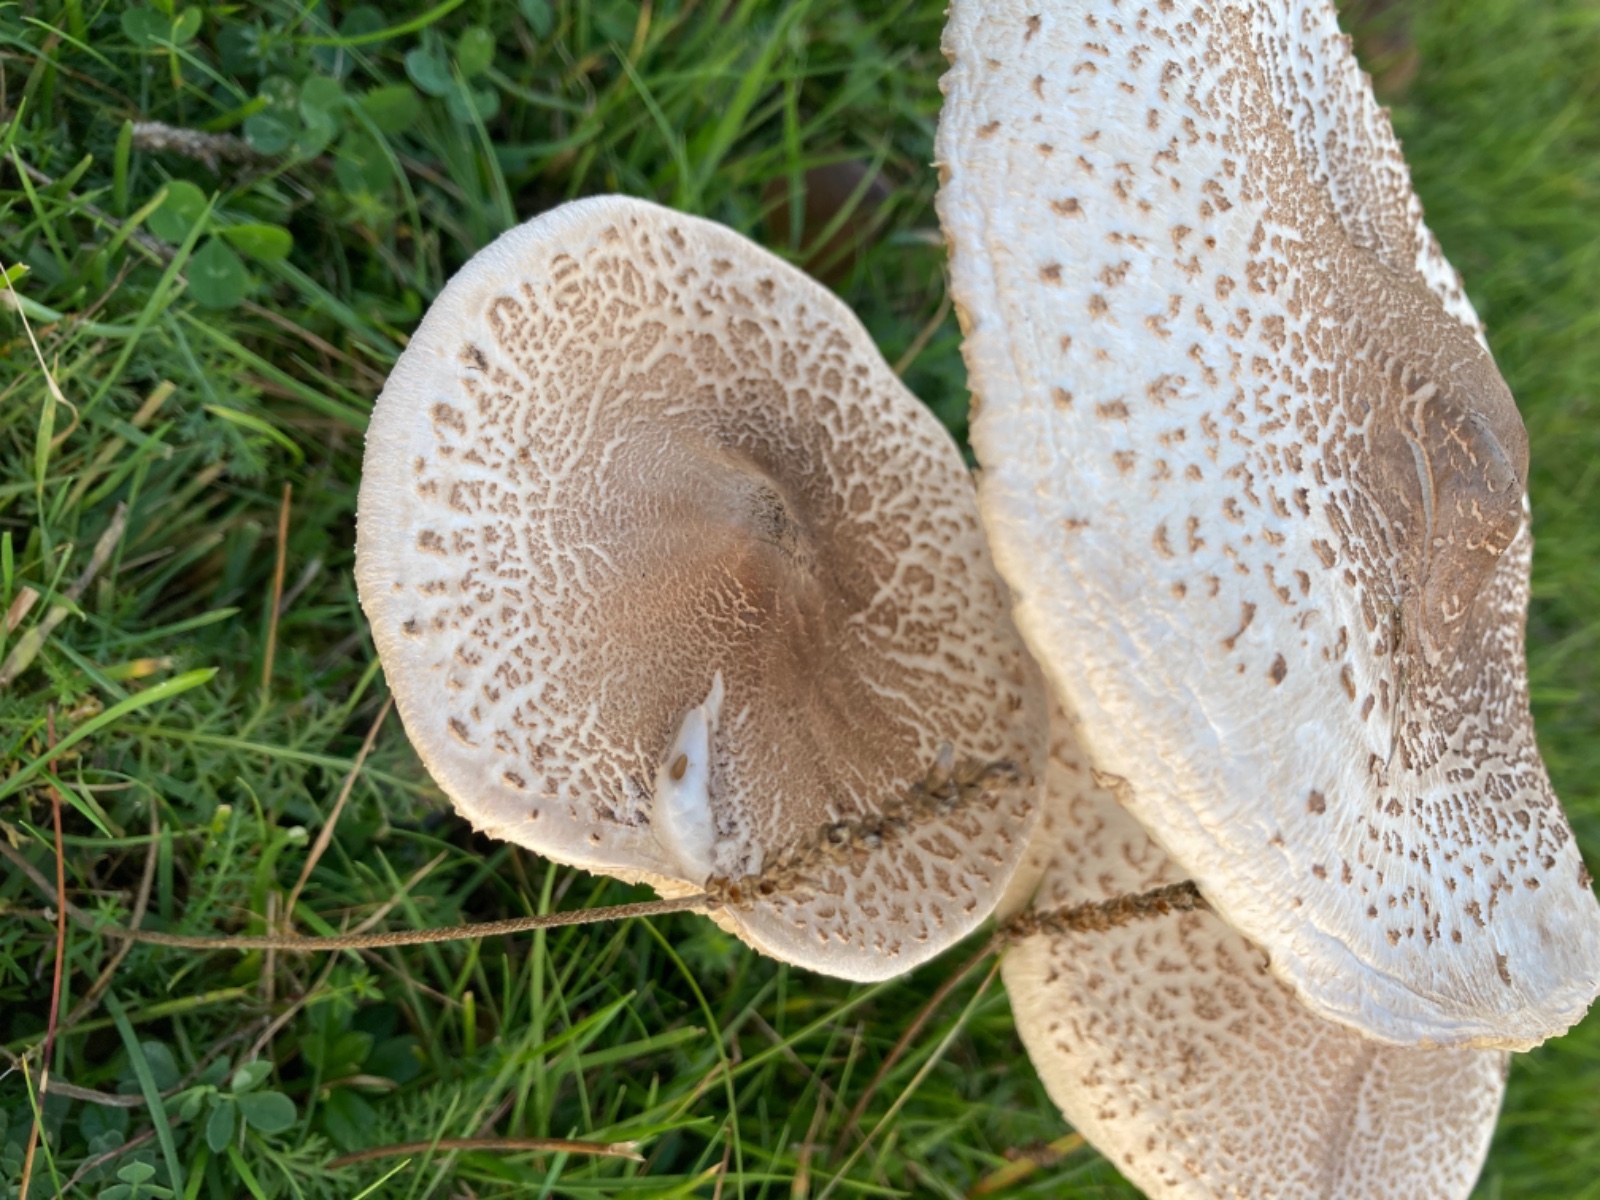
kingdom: Fungi
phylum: Basidiomycota
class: Agaricomycetes
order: Agaricales
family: Agaricaceae
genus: Macrolepiota
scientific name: Macrolepiota mastoidea
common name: puklet kæmpeparasolhat
